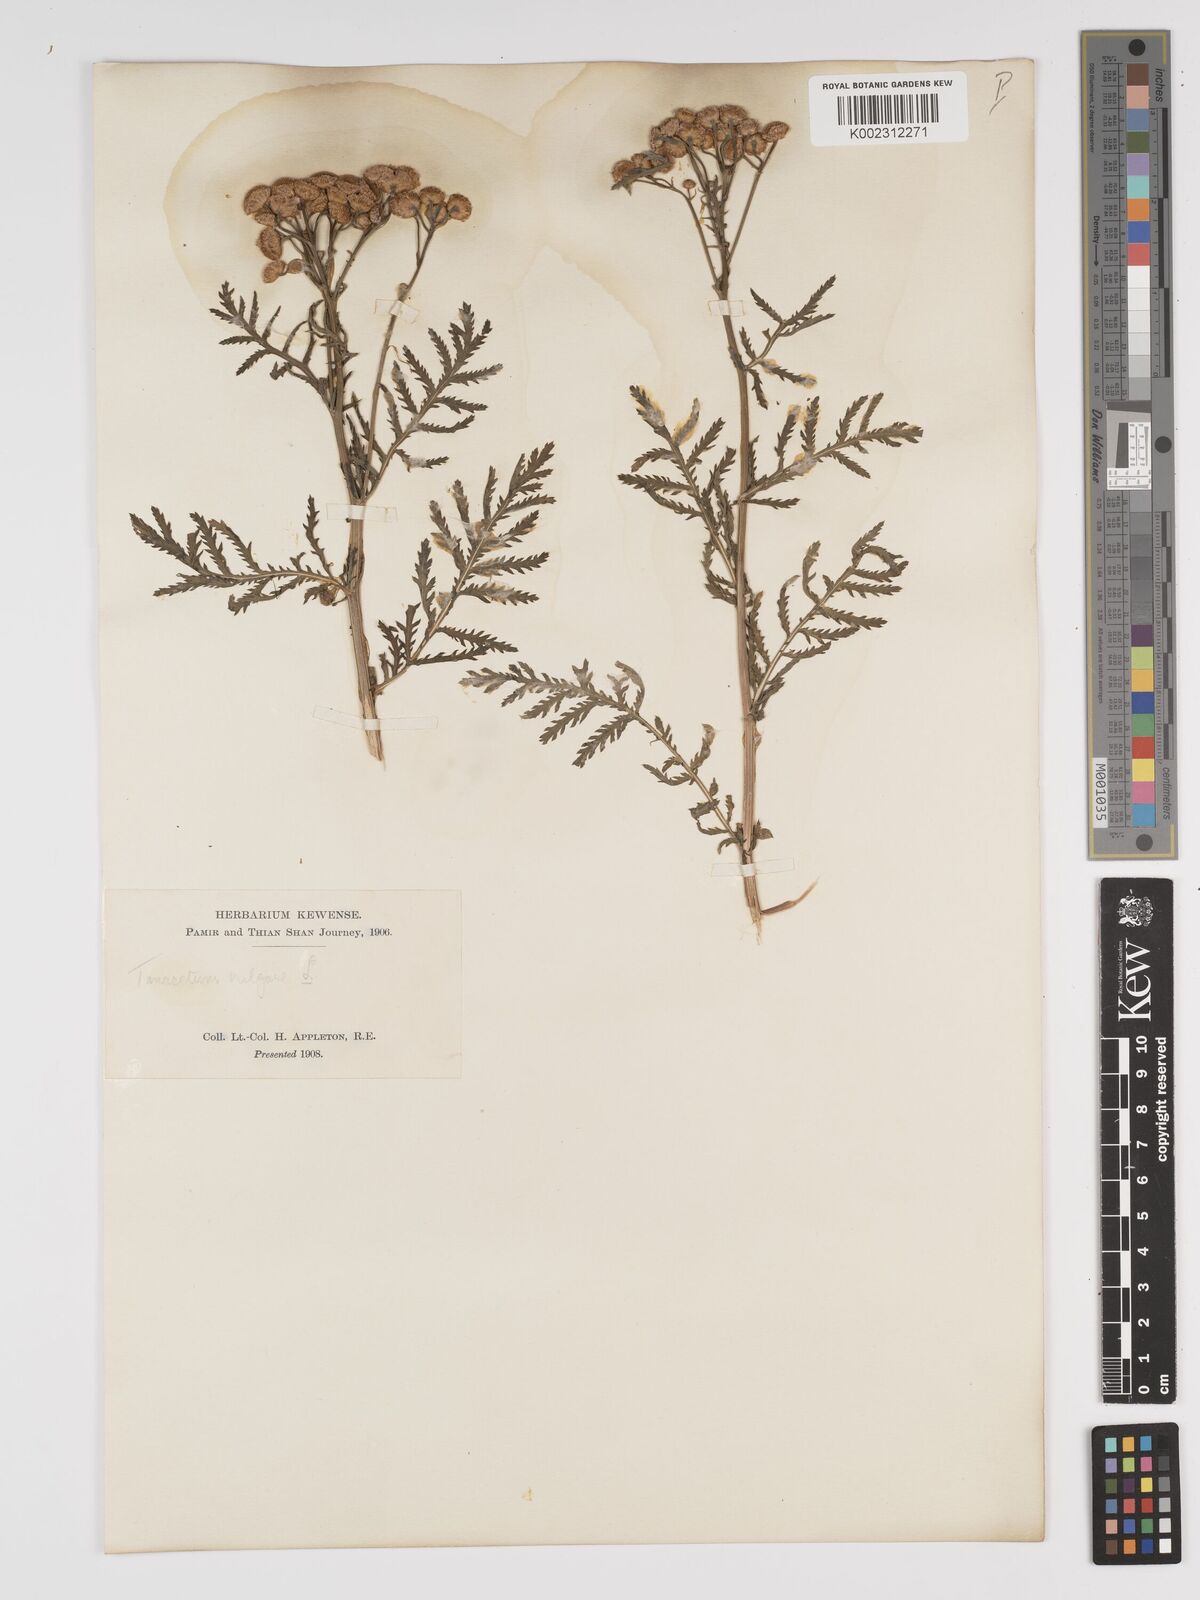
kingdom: Plantae
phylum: Tracheophyta
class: Magnoliopsida
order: Asterales
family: Asteraceae
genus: Tanacetum
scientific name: Tanacetum vulgare
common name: Common tansy
